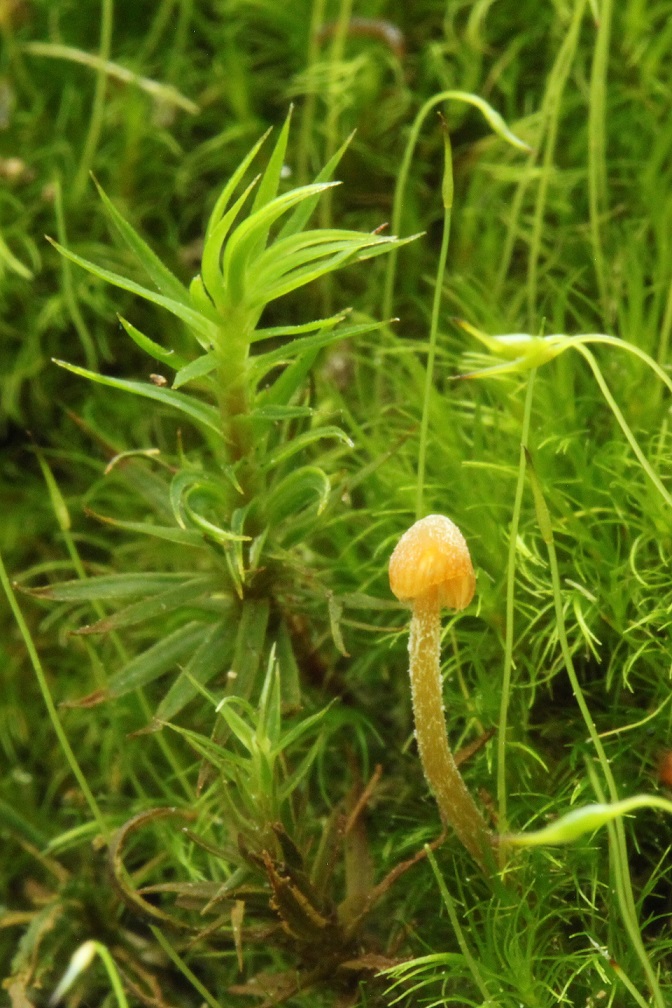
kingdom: Fungi
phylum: Basidiomycota
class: Agaricomycetes
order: Agaricales
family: Hymenogastraceae
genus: Galerina
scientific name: Galerina hypnorum
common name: mos-hjelmhat
